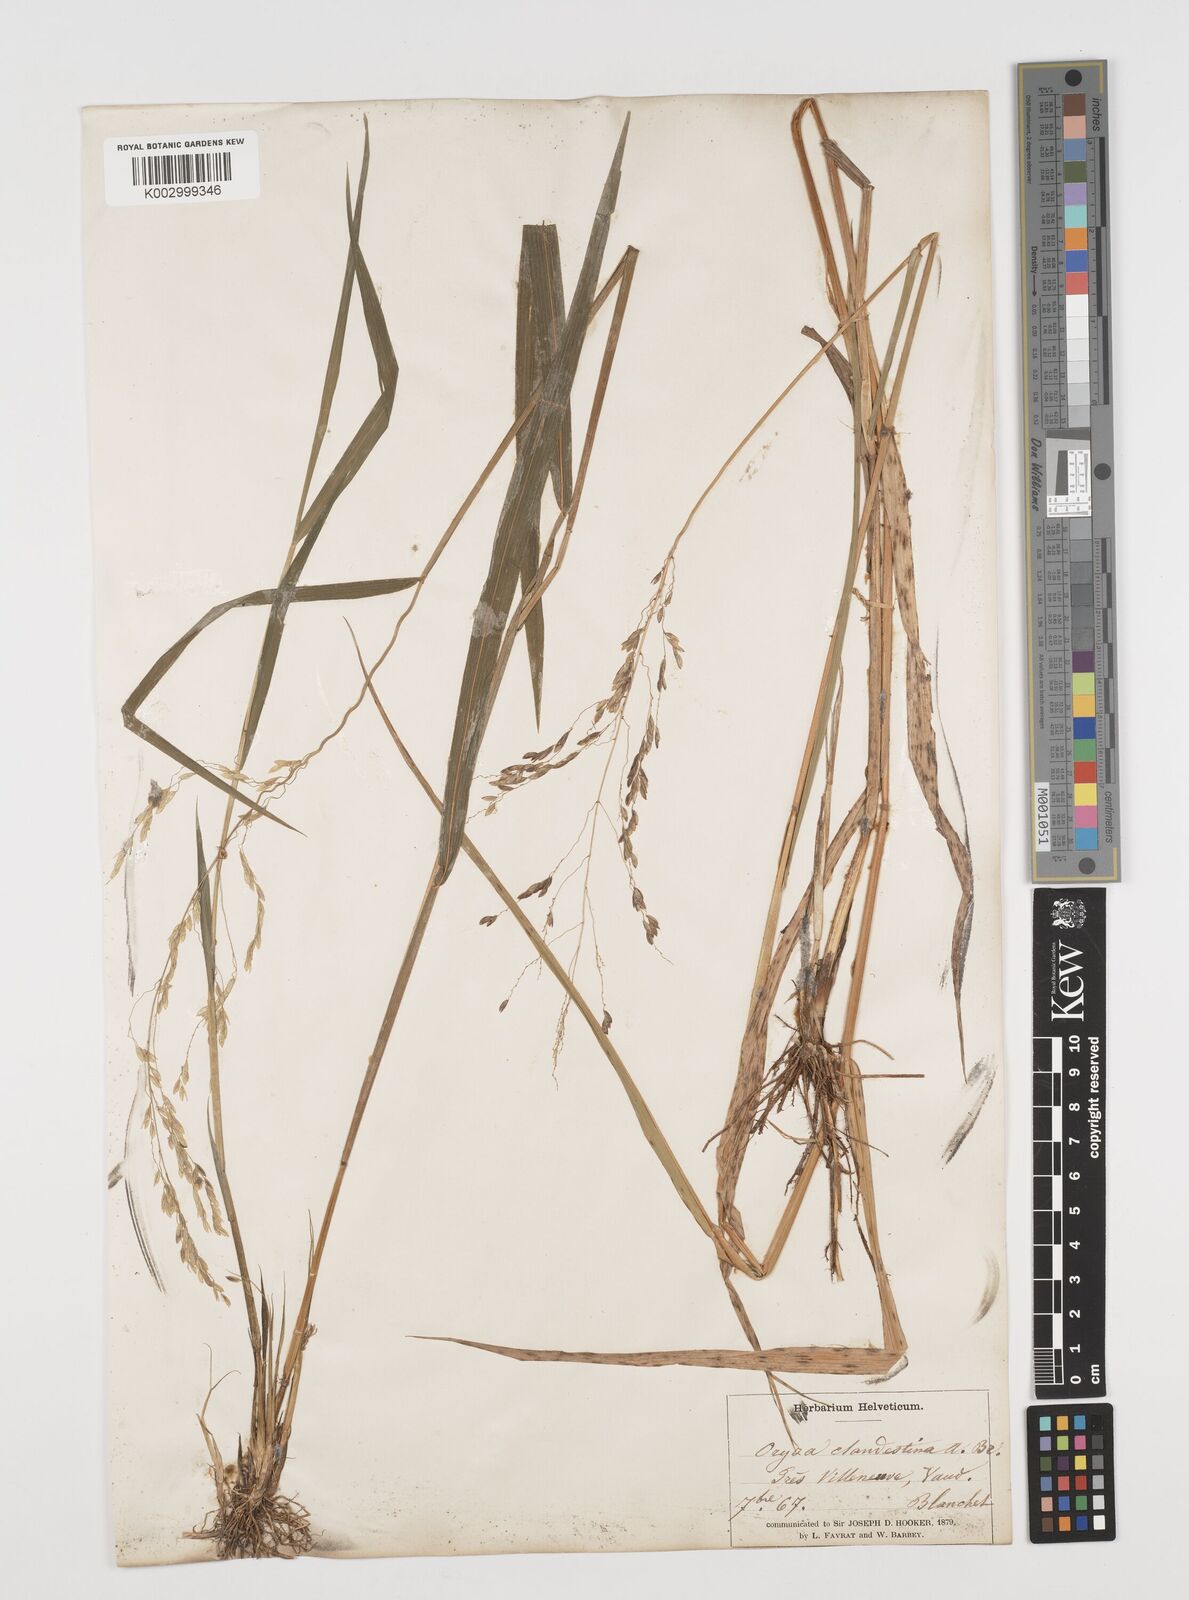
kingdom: Plantae
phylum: Tracheophyta
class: Liliopsida
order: Poales
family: Poaceae
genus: Leersia
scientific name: Leersia oryzoides
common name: Cut-grass
